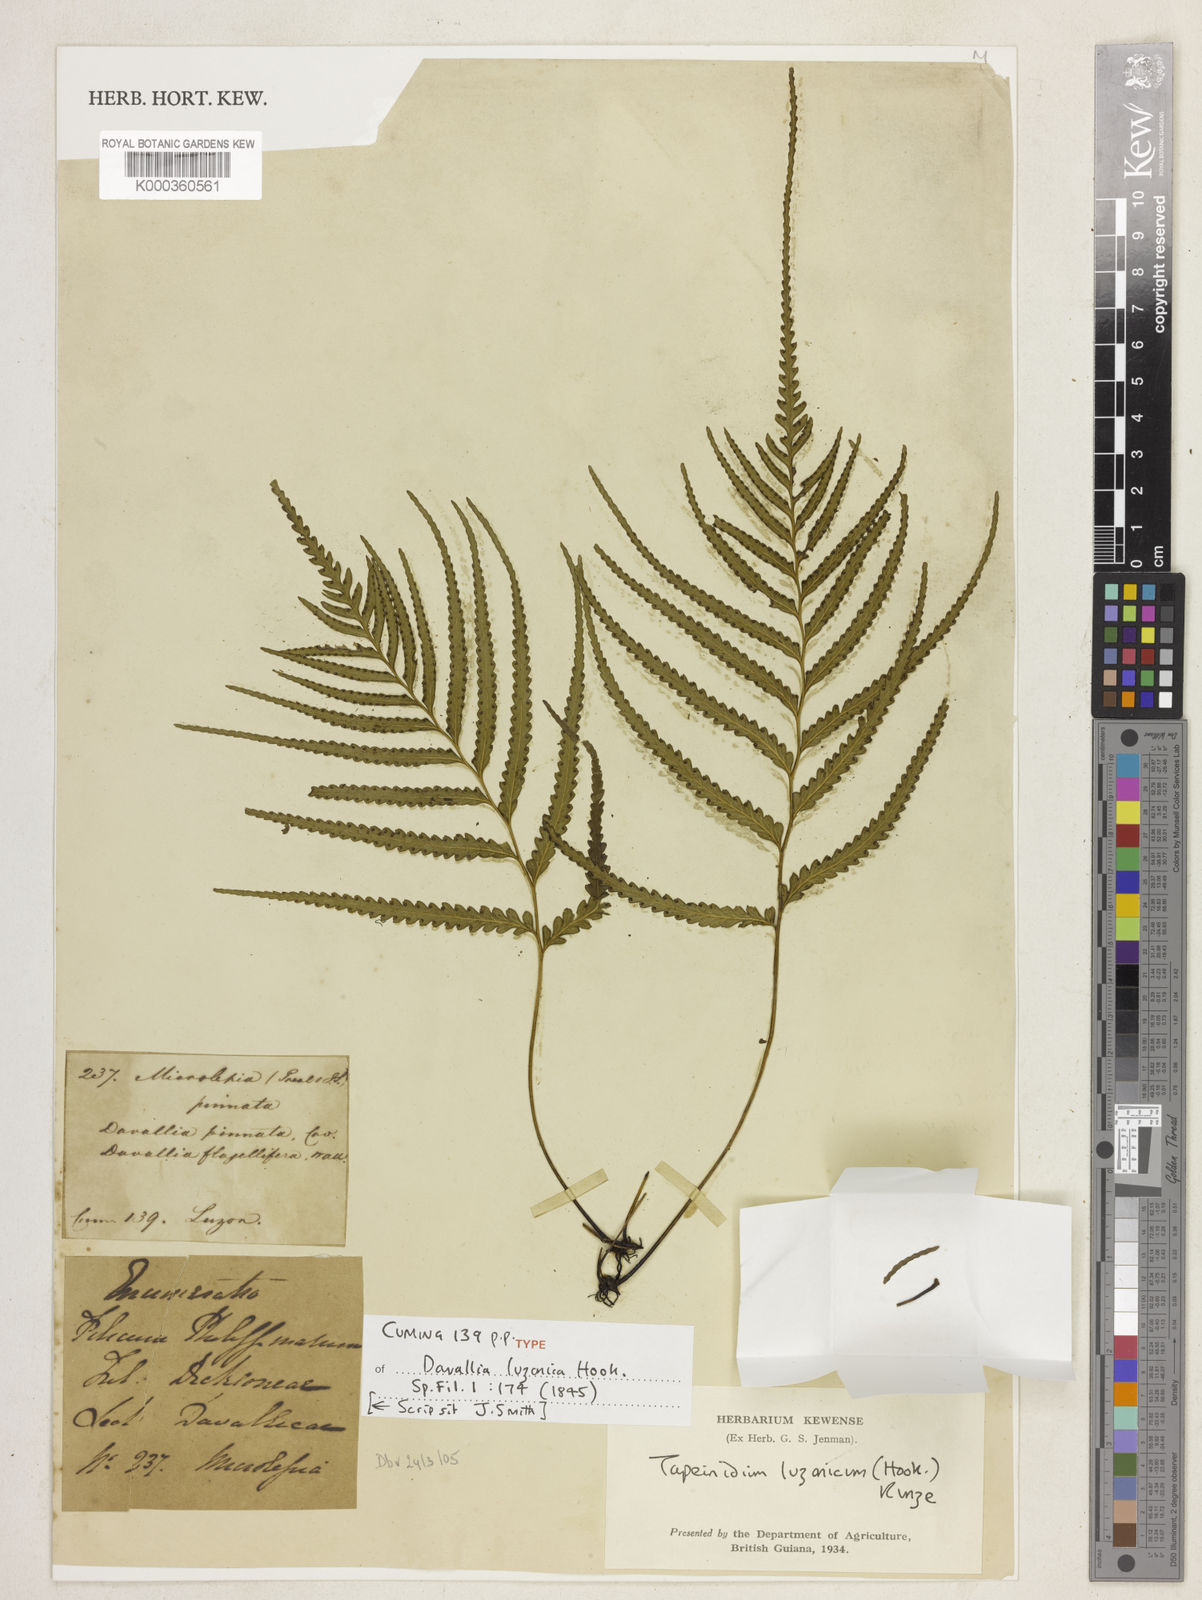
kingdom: Plantae
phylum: Tracheophyta
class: Polypodiopsida
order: Polypodiales
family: Lindsaeaceae
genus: Tapeinidium
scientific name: Tapeinidium luzonicum
